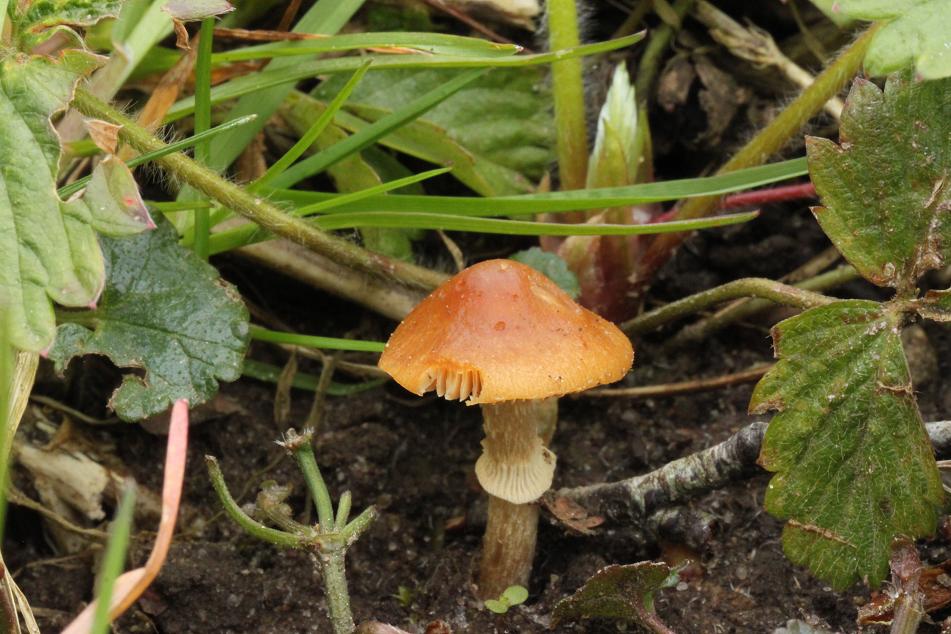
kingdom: Fungi
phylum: Basidiomycota
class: Agaricomycetes
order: Agaricales
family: Bolbitiaceae
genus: Conocybe
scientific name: Conocybe aporos
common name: tidlig dansehat
